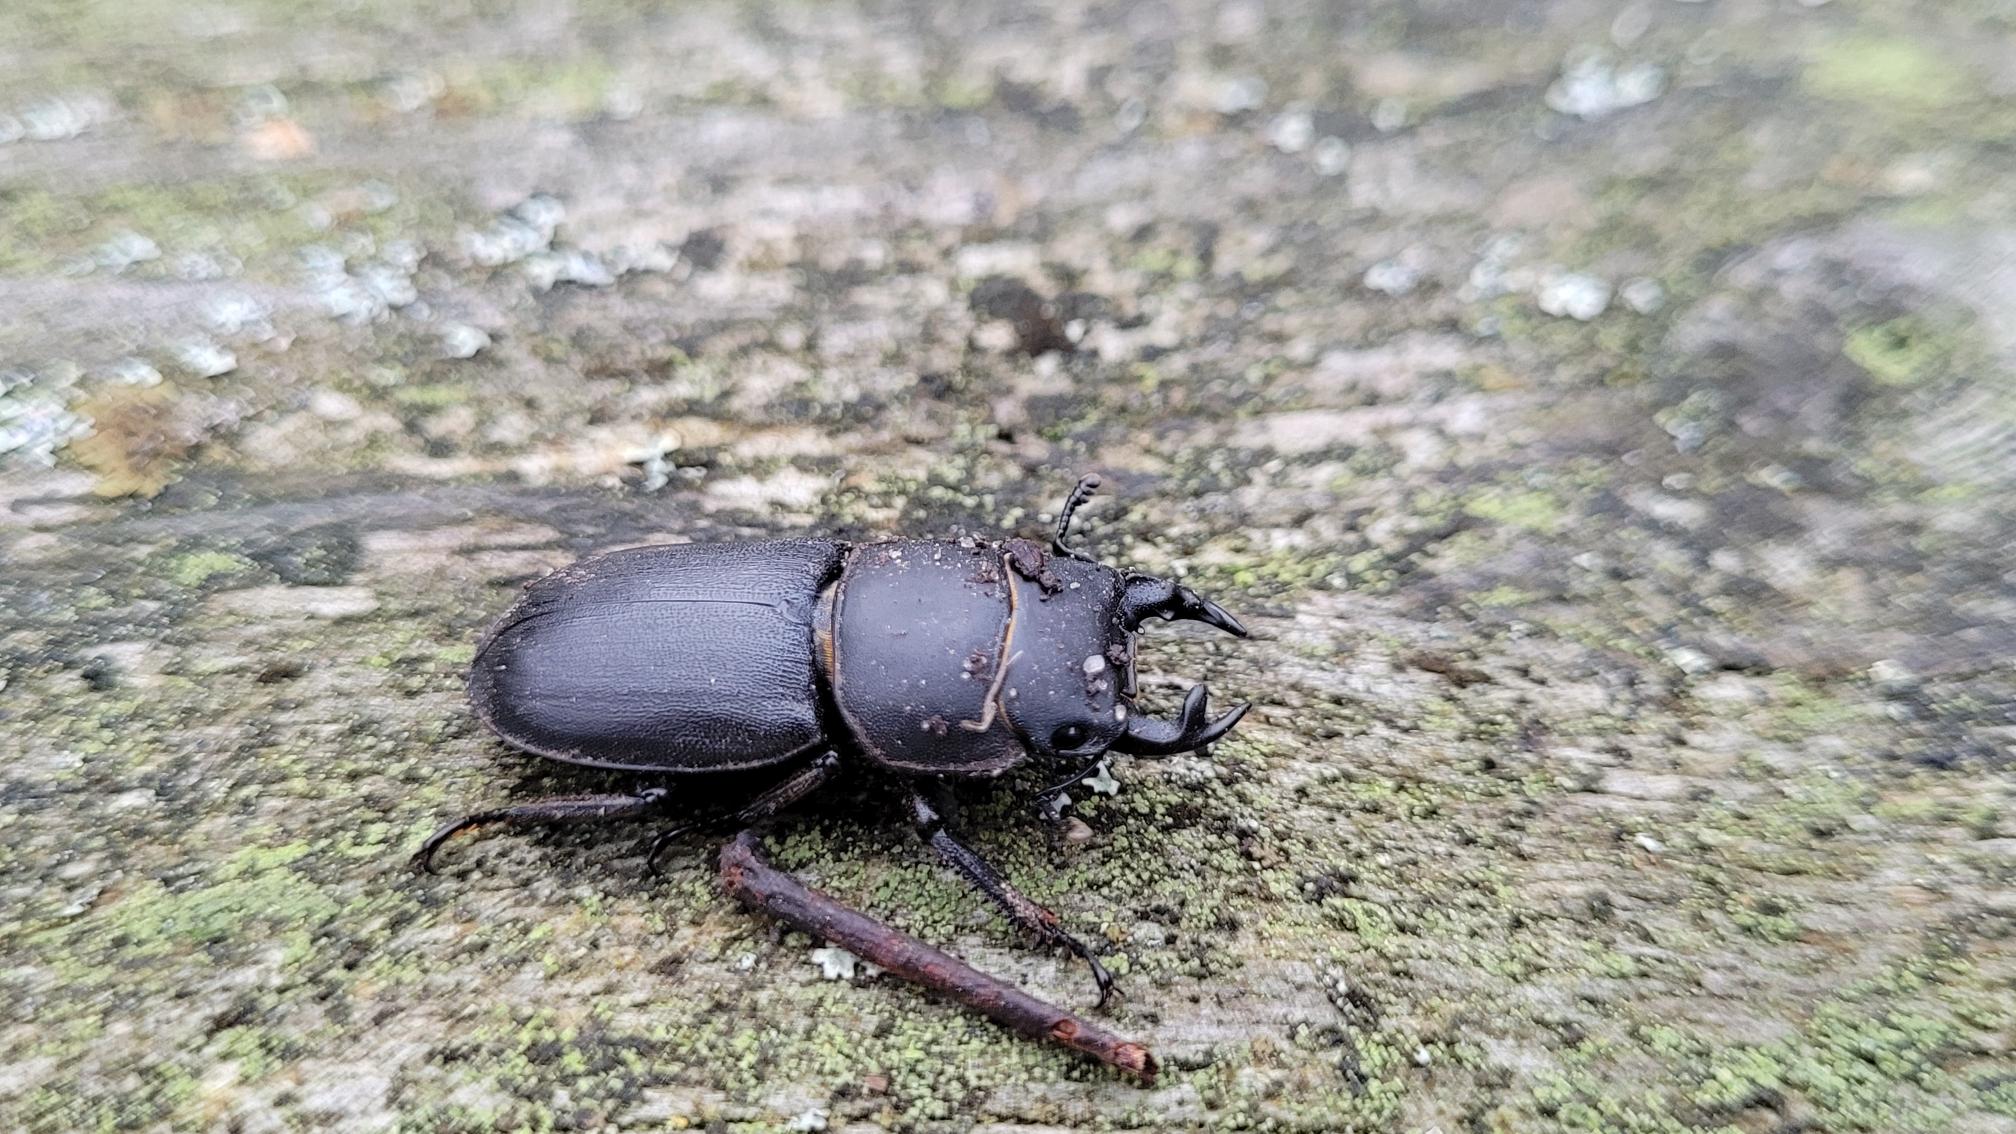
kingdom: Animalia
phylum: Arthropoda
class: Insecta
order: Coleoptera
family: Lucanidae
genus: Dorcus
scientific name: Dorcus parallelipipedus
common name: Bøghjort
